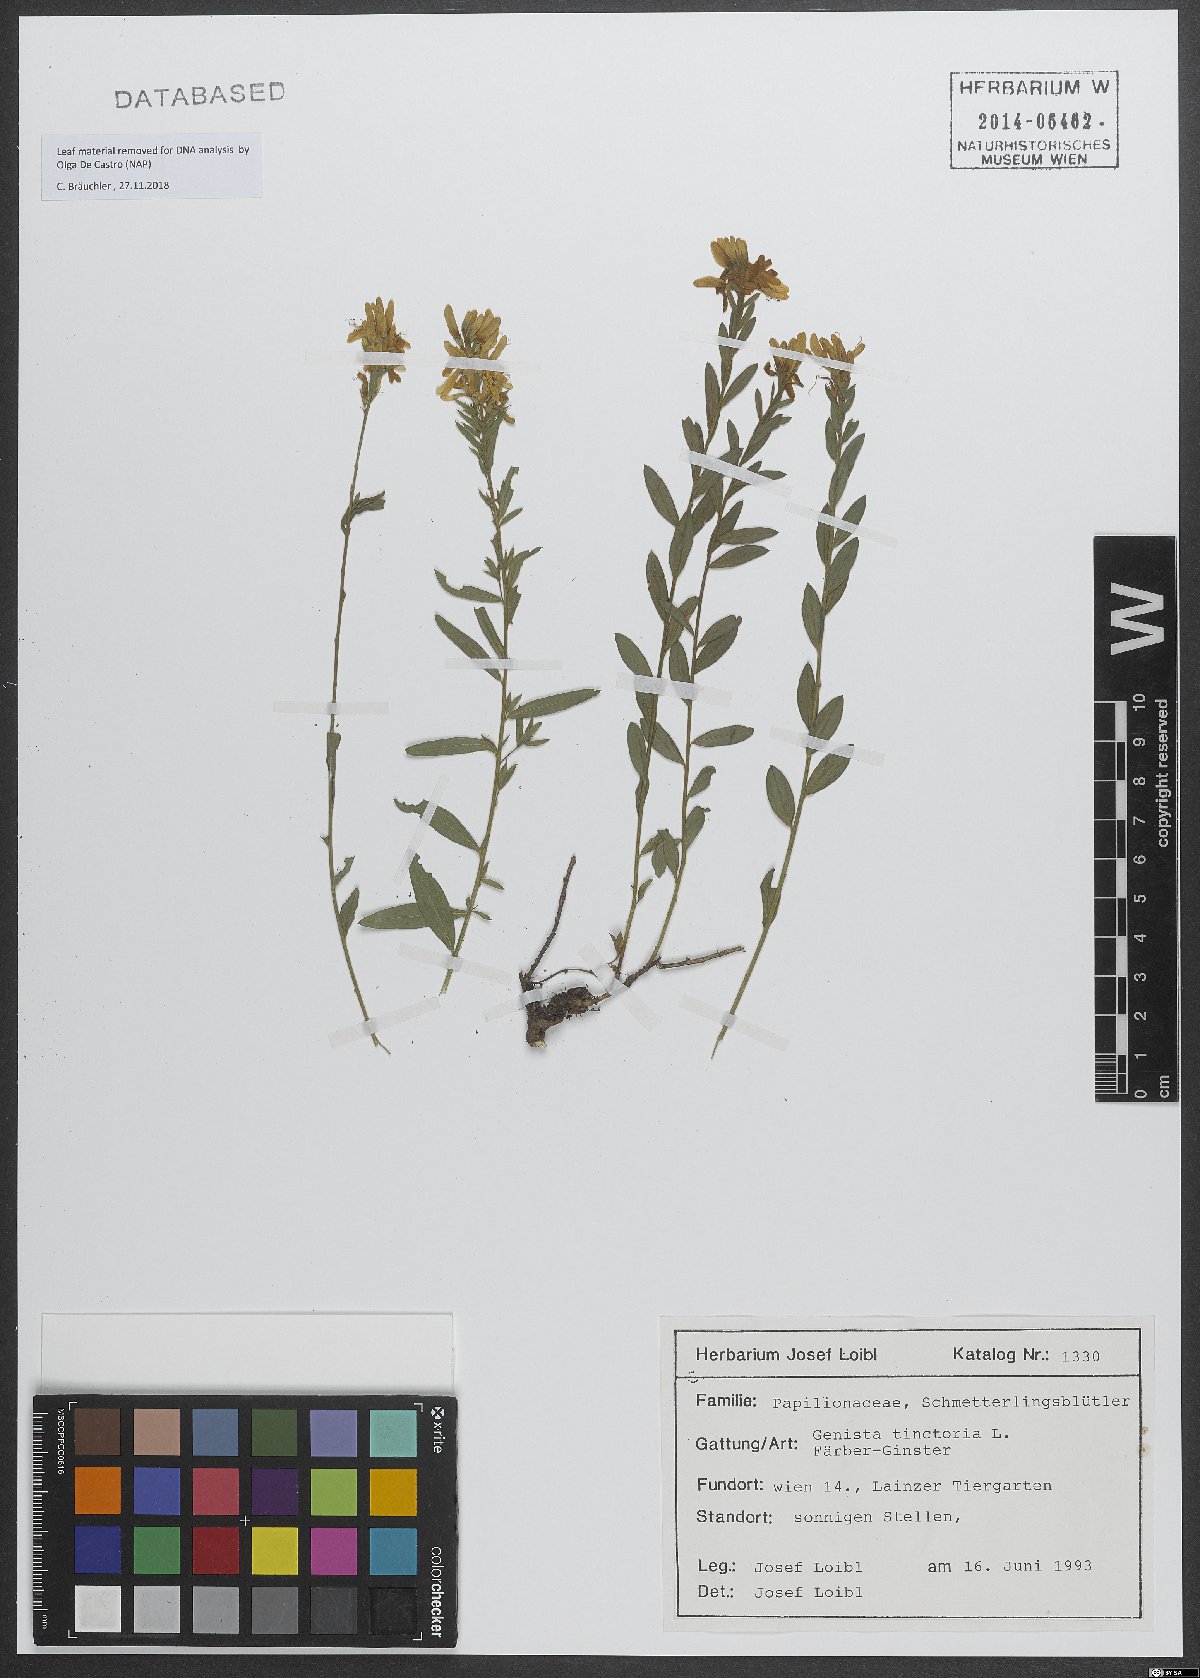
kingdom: Plantae
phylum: Tracheophyta
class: Magnoliopsida
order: Fabales
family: Fabaceae
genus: Genista
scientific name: Genista tinctoria
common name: Dyer's greenweed
